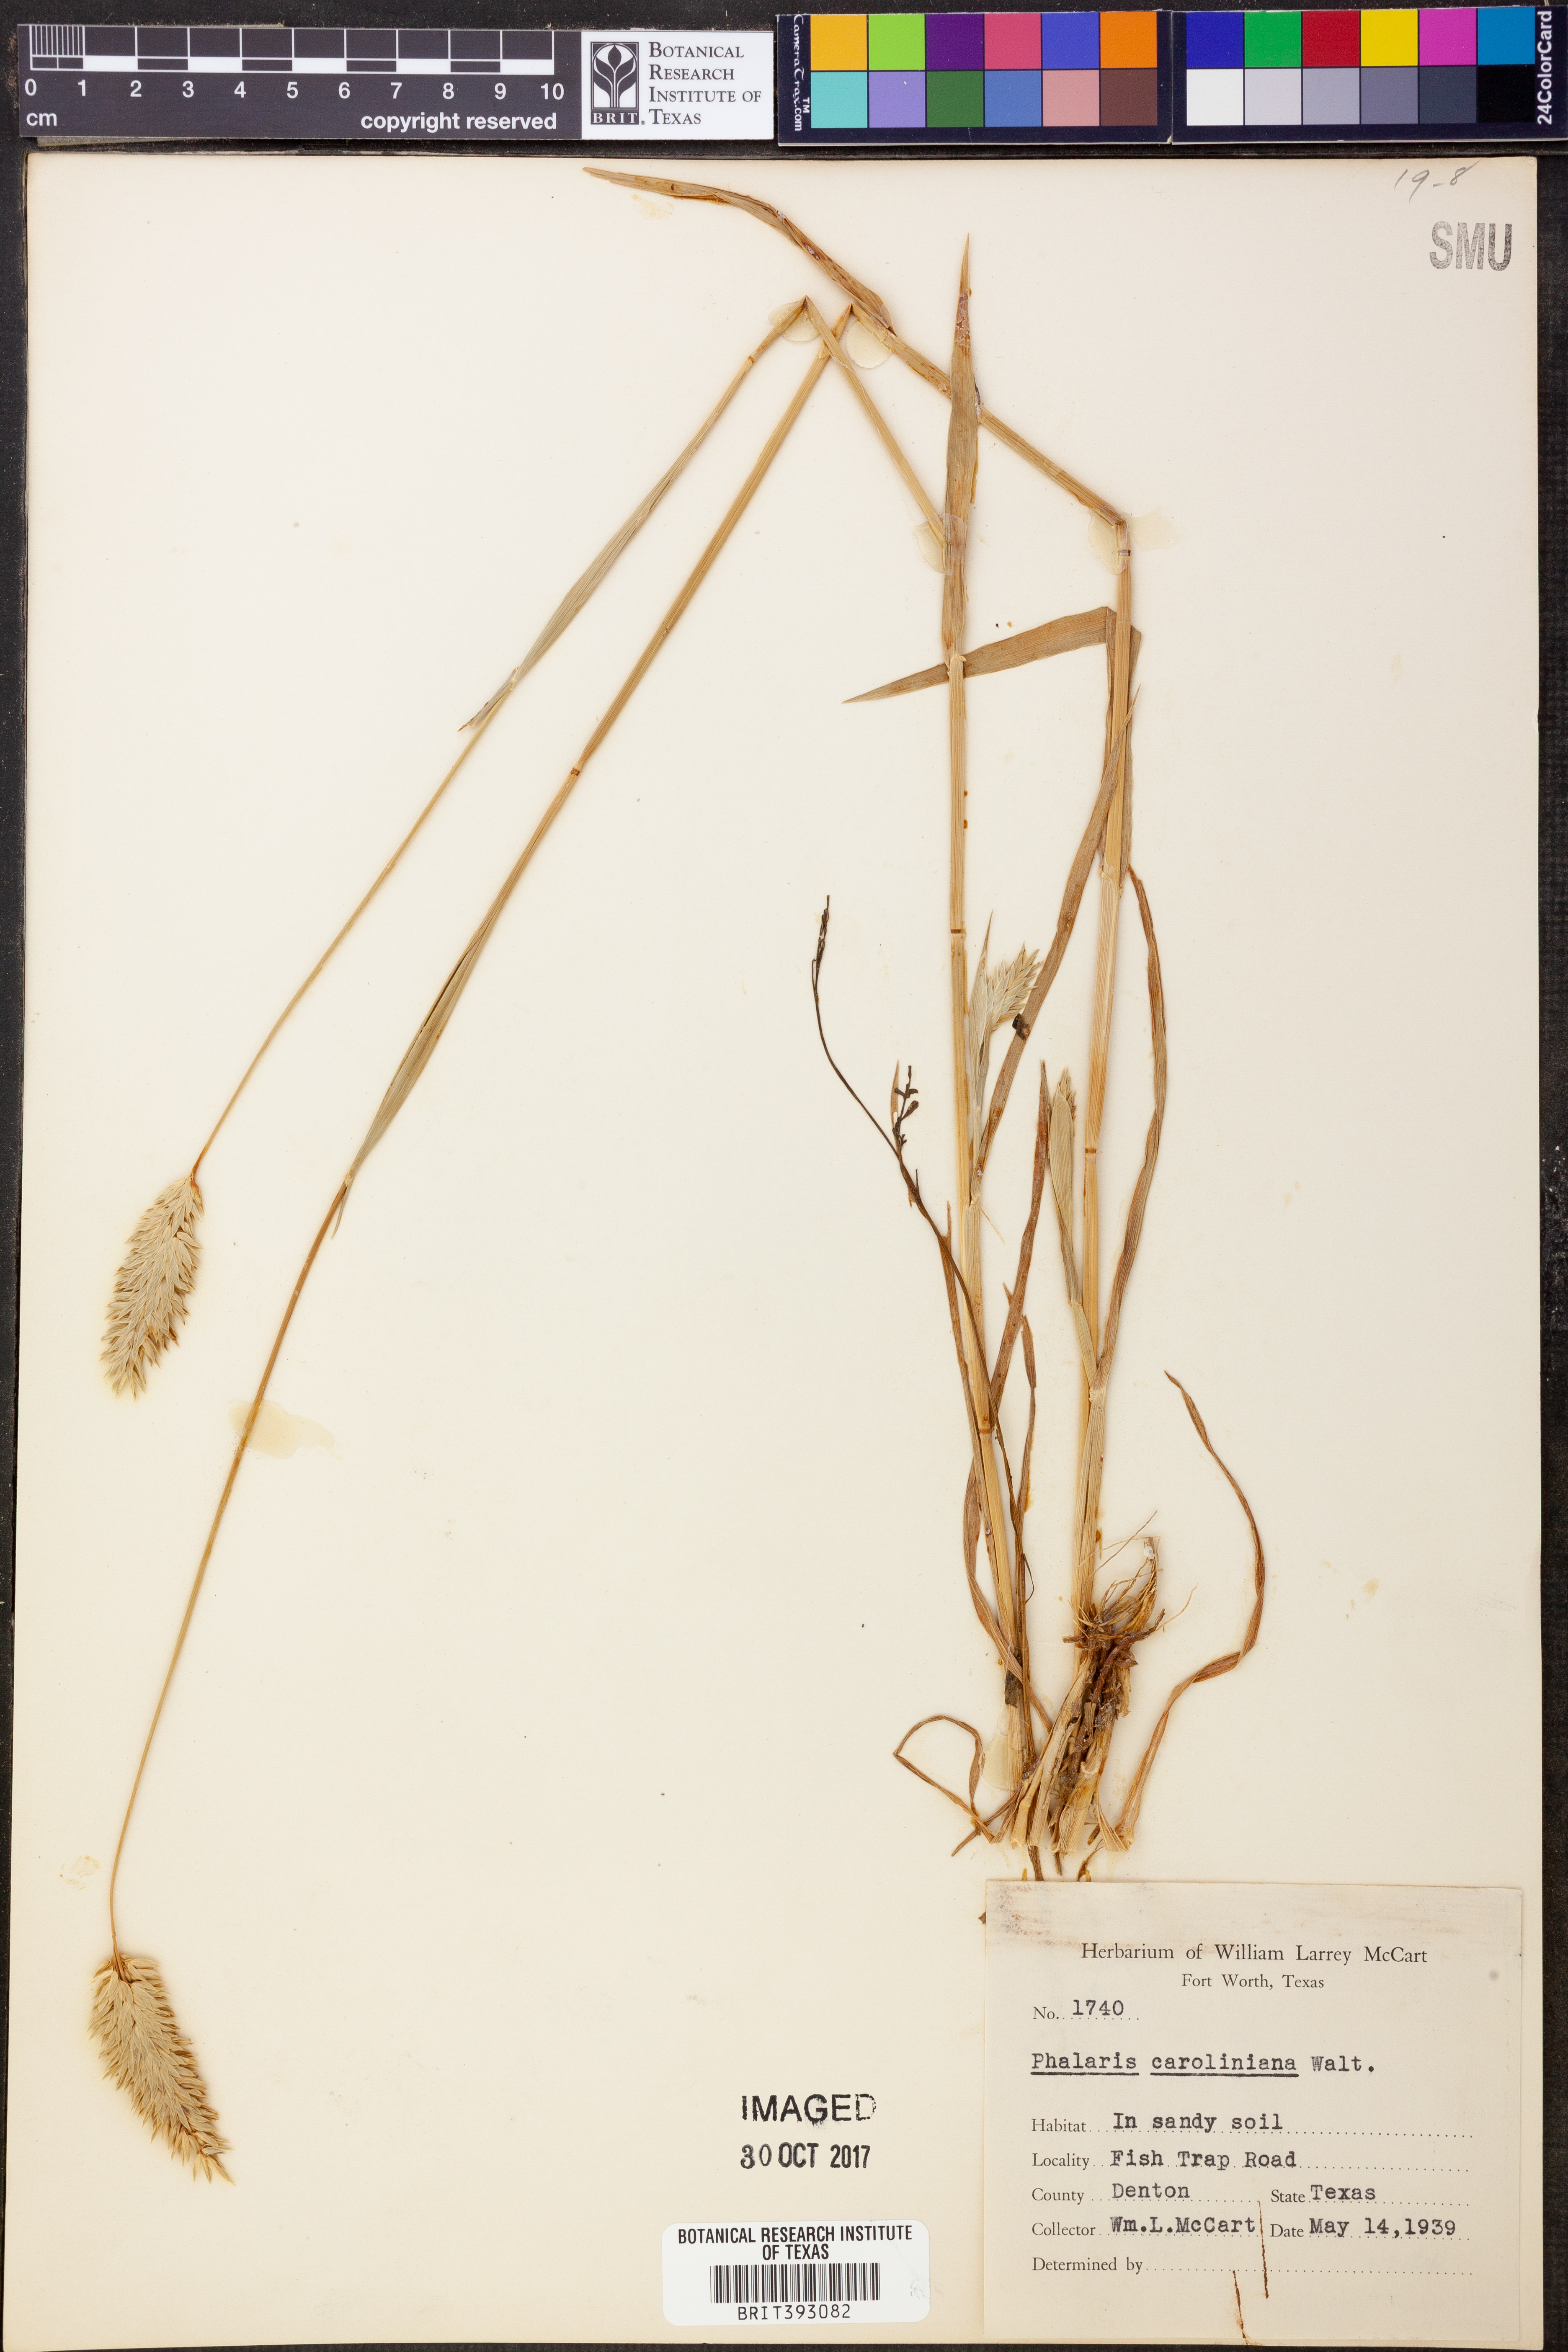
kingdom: Plantae
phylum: Tracheophyta
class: Liliopsida
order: Poales
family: Poaceae
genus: Phalaris
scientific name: Phalaris caroliniana
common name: May grass
